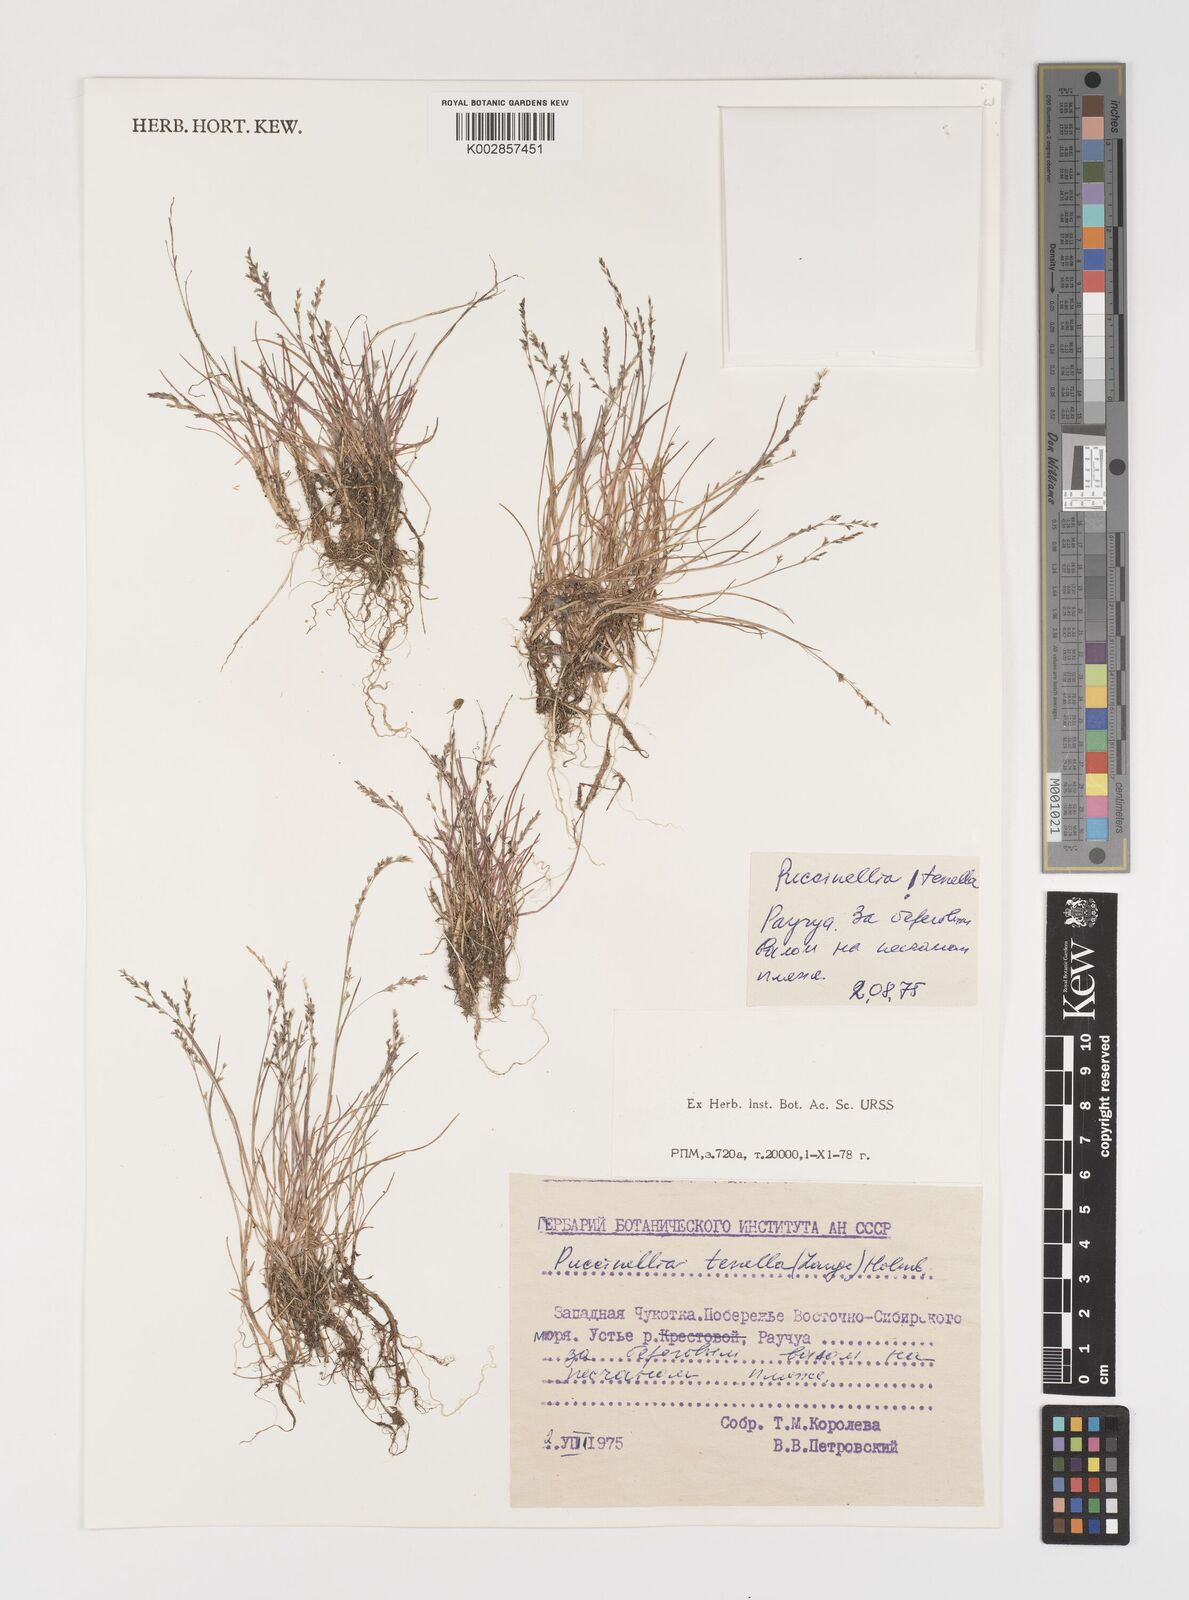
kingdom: Plantae
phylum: Tracheophyta
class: Liliopsida
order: Poales
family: Poaceae
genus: Puccinellia
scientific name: Puccinellia tenella
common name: Tundra alkaligrass
